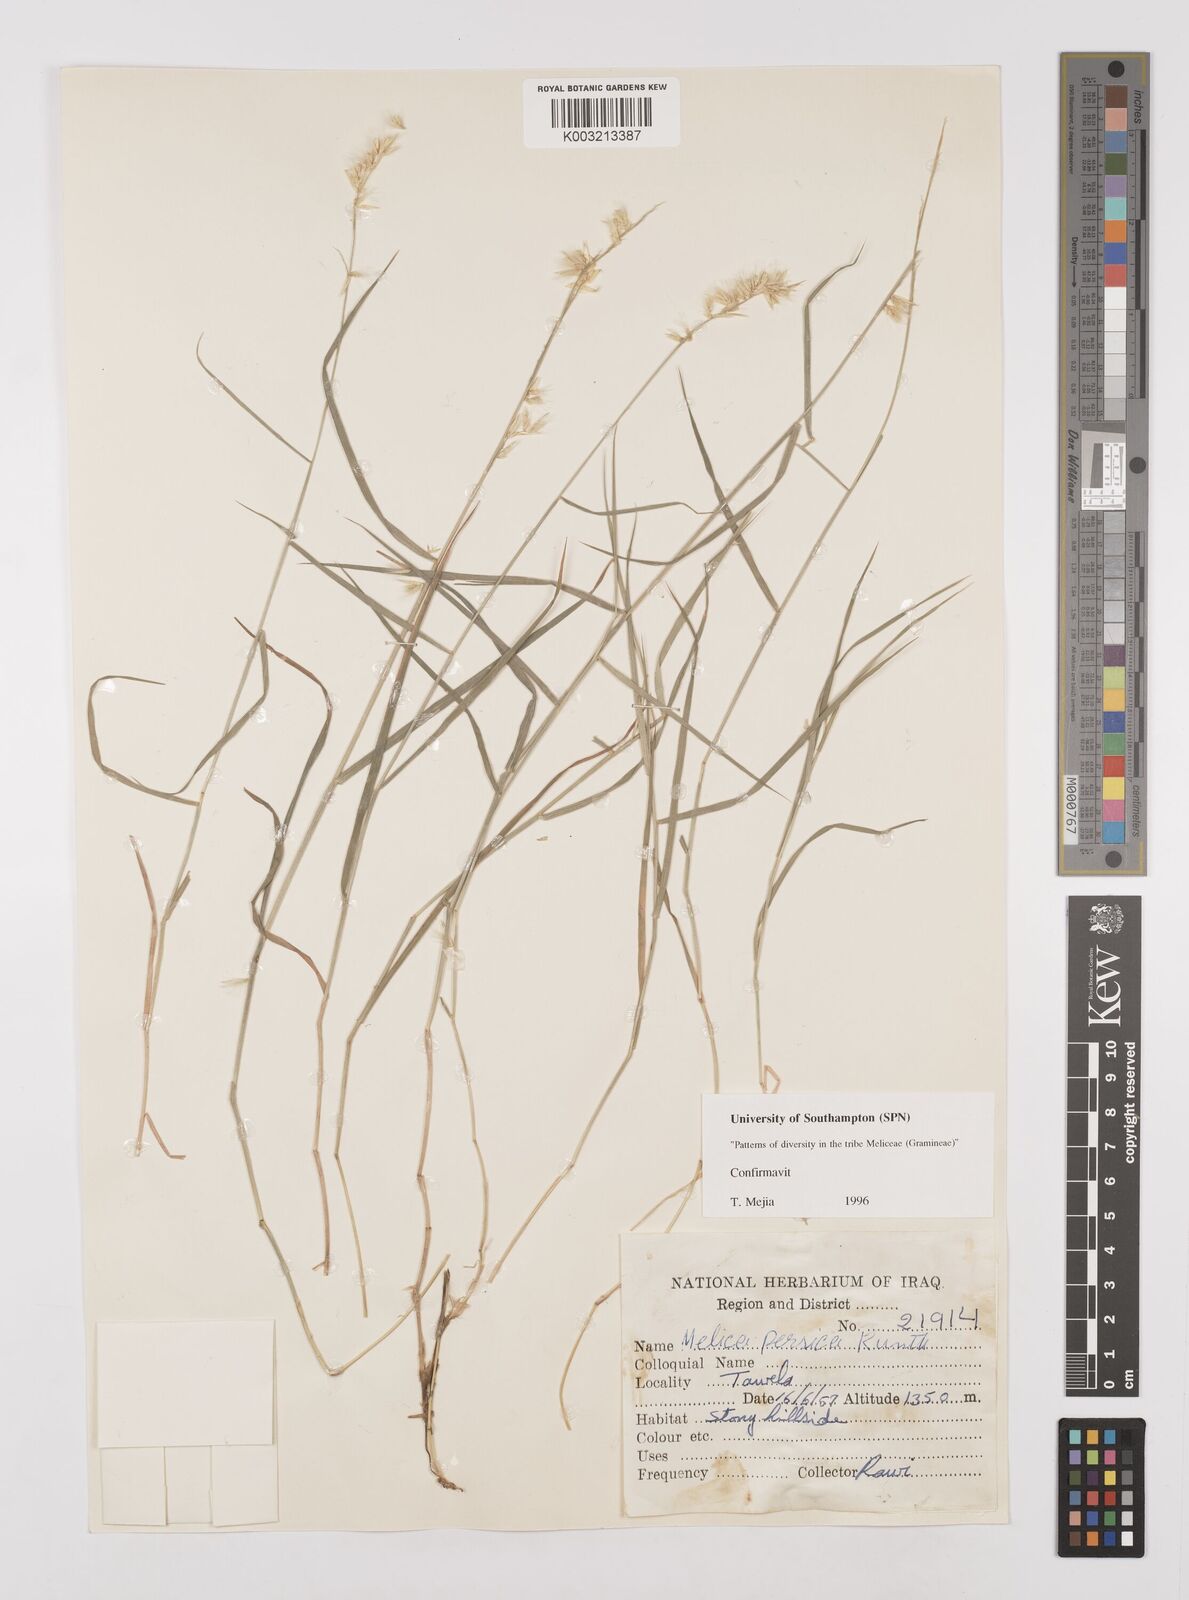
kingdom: Plantae
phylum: Tracheophyta
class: Liliopsida
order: Poales
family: Poaceae
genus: Melica
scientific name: Melica persica
